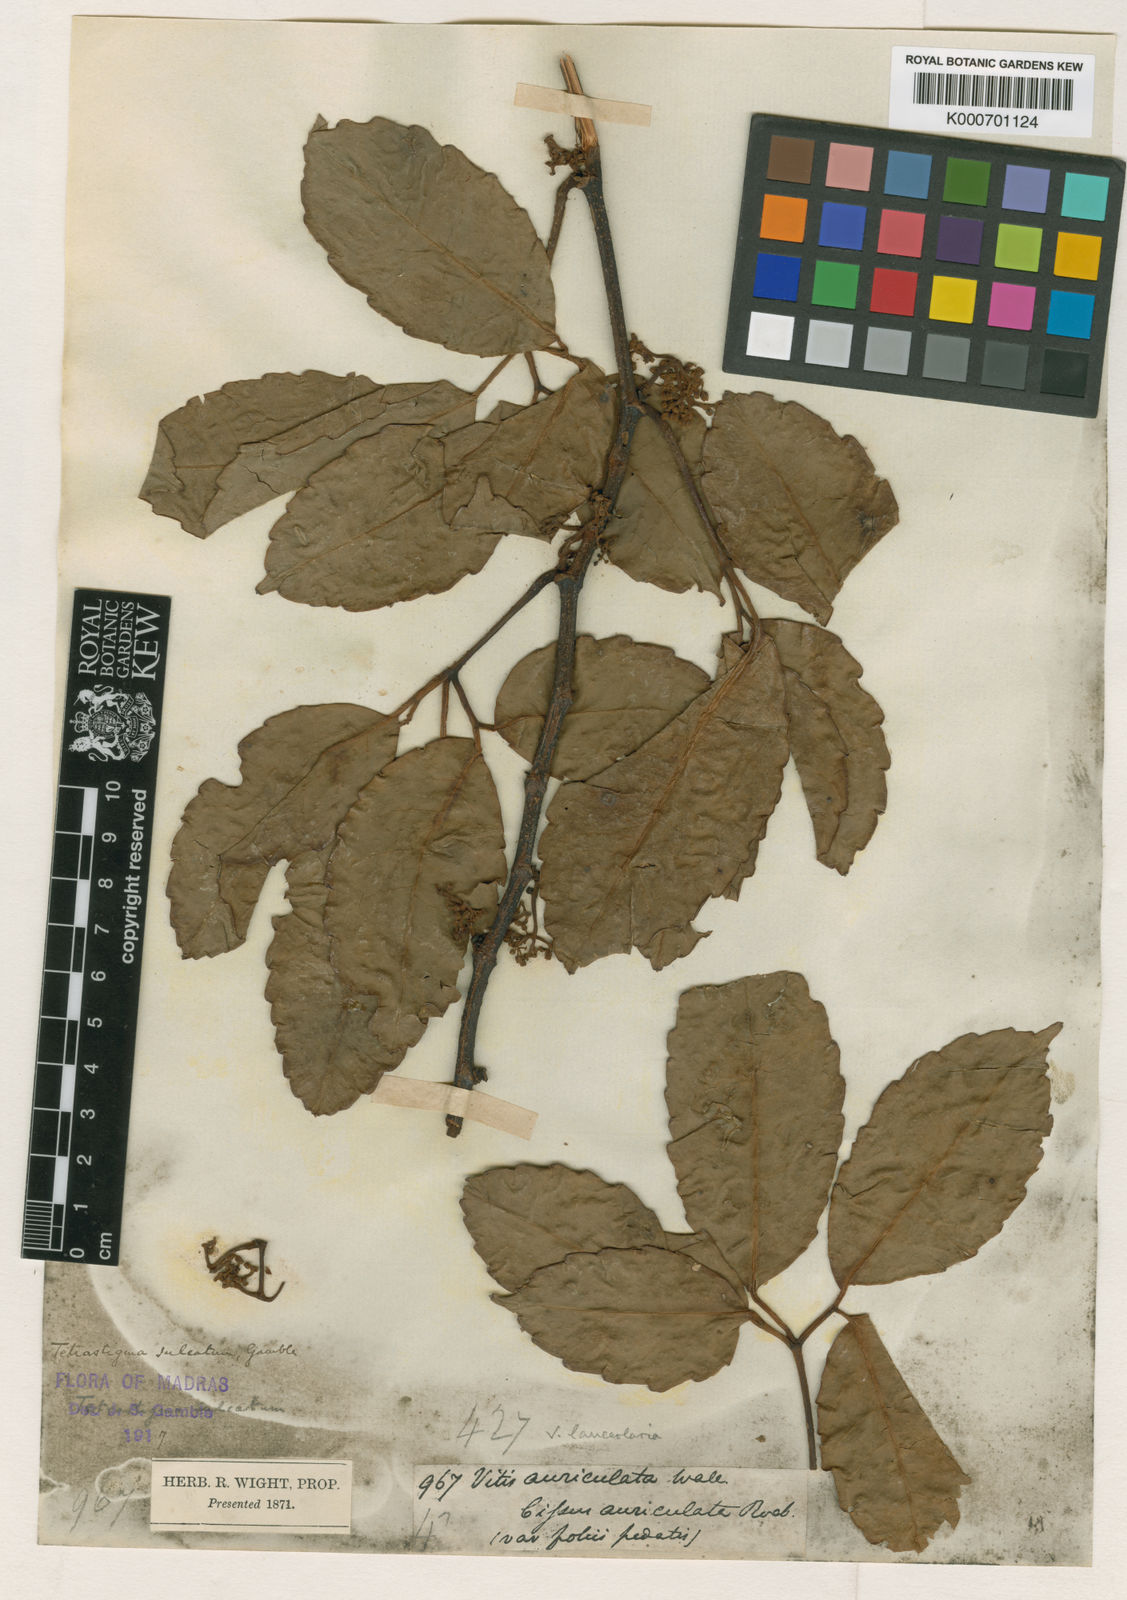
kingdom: Plantae
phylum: Tracheophyta
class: Magnoliopsida
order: Vitales
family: Vitaceae
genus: Tetrastigma
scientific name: Tetrastigma
